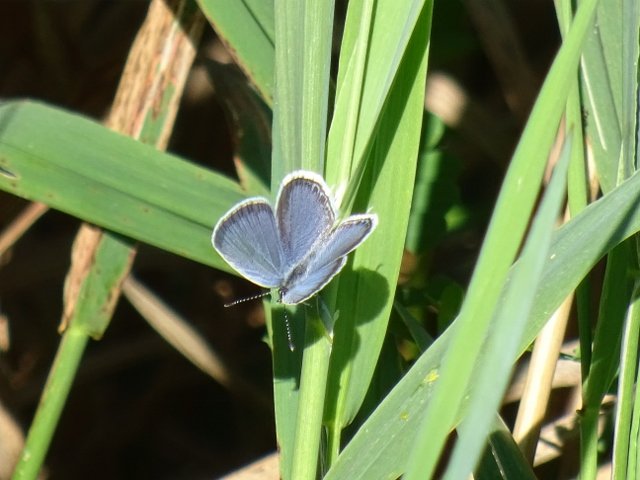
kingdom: Animalia
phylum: Arthropoda
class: Insecta
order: Lepidoptera
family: Lycaenidae
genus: Elkalyce
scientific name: Elkalyce comyntas
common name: Eastern Tailed-Blue
